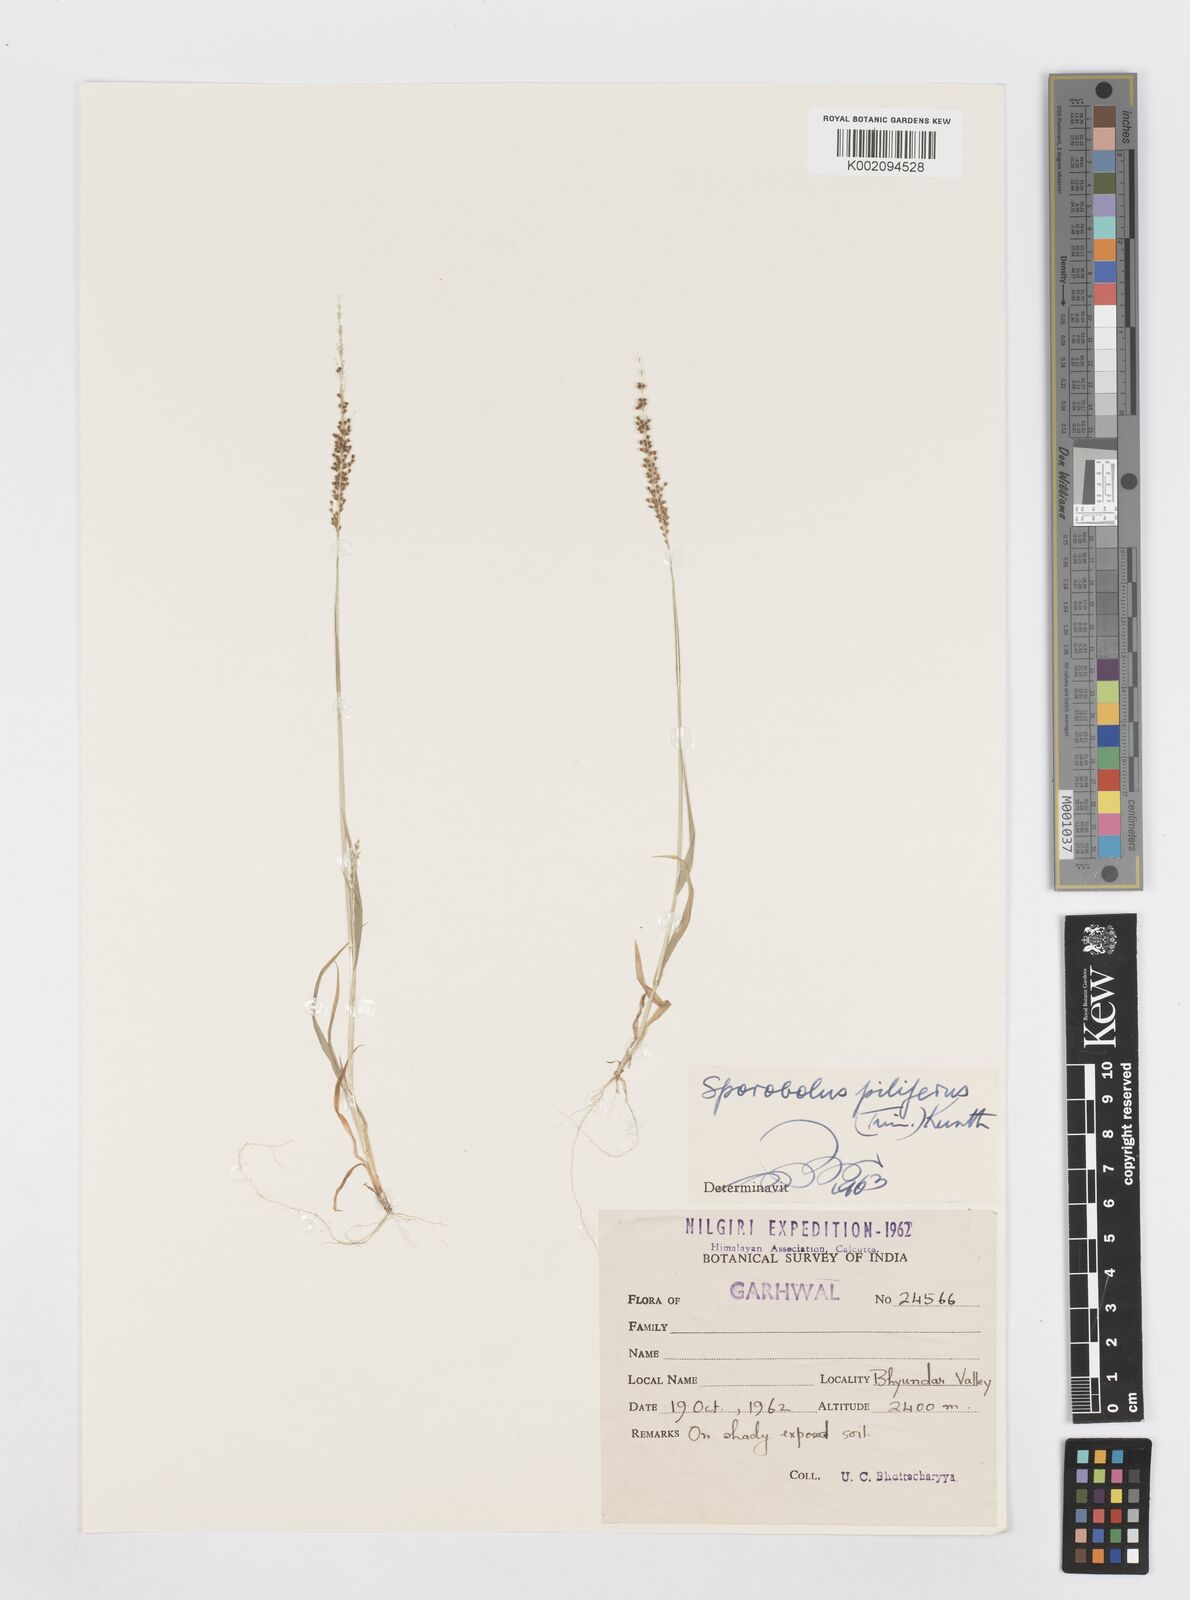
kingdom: Plantae
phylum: Tracheophyta
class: Liliopsida
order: Poales
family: Poaceae
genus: Sporobolus
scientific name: Sporobolus pilifer
